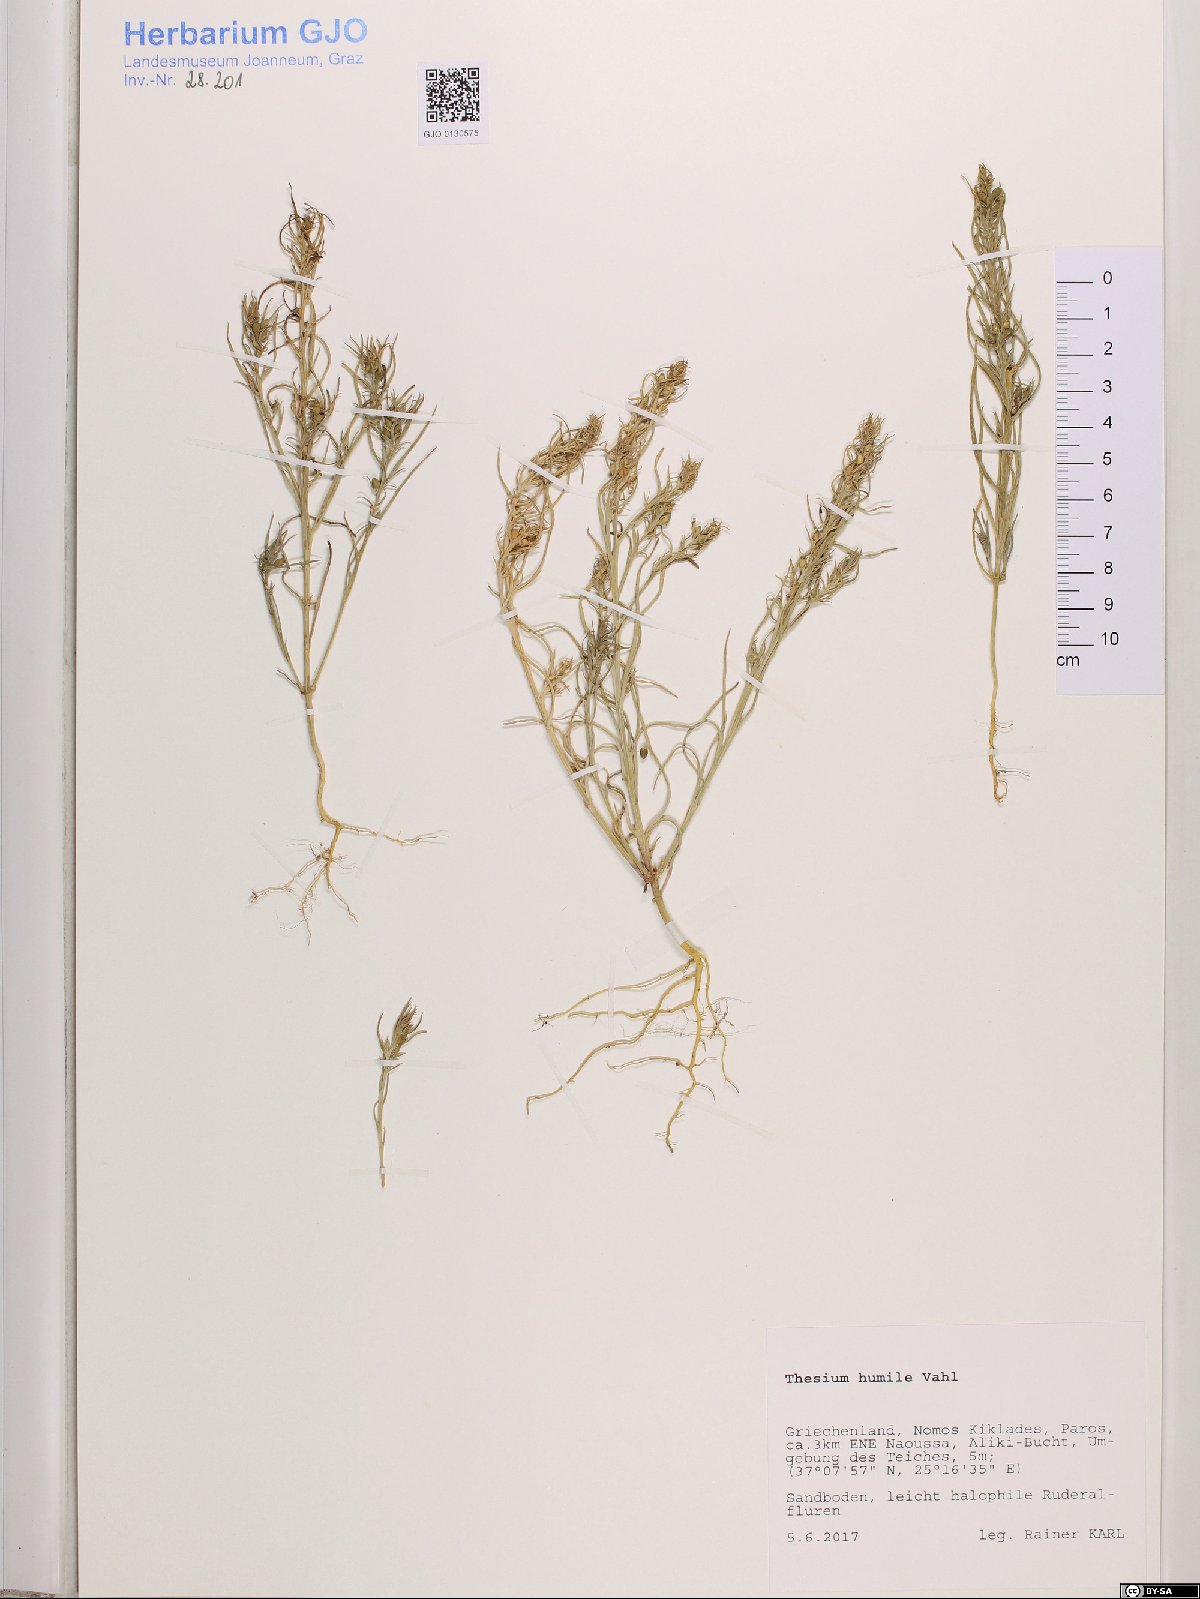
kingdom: Plantae
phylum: Tracheophyta
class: Magnoliopsida
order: Santalales
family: Thesiaceae
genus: Thesium
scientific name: Thesium humile
